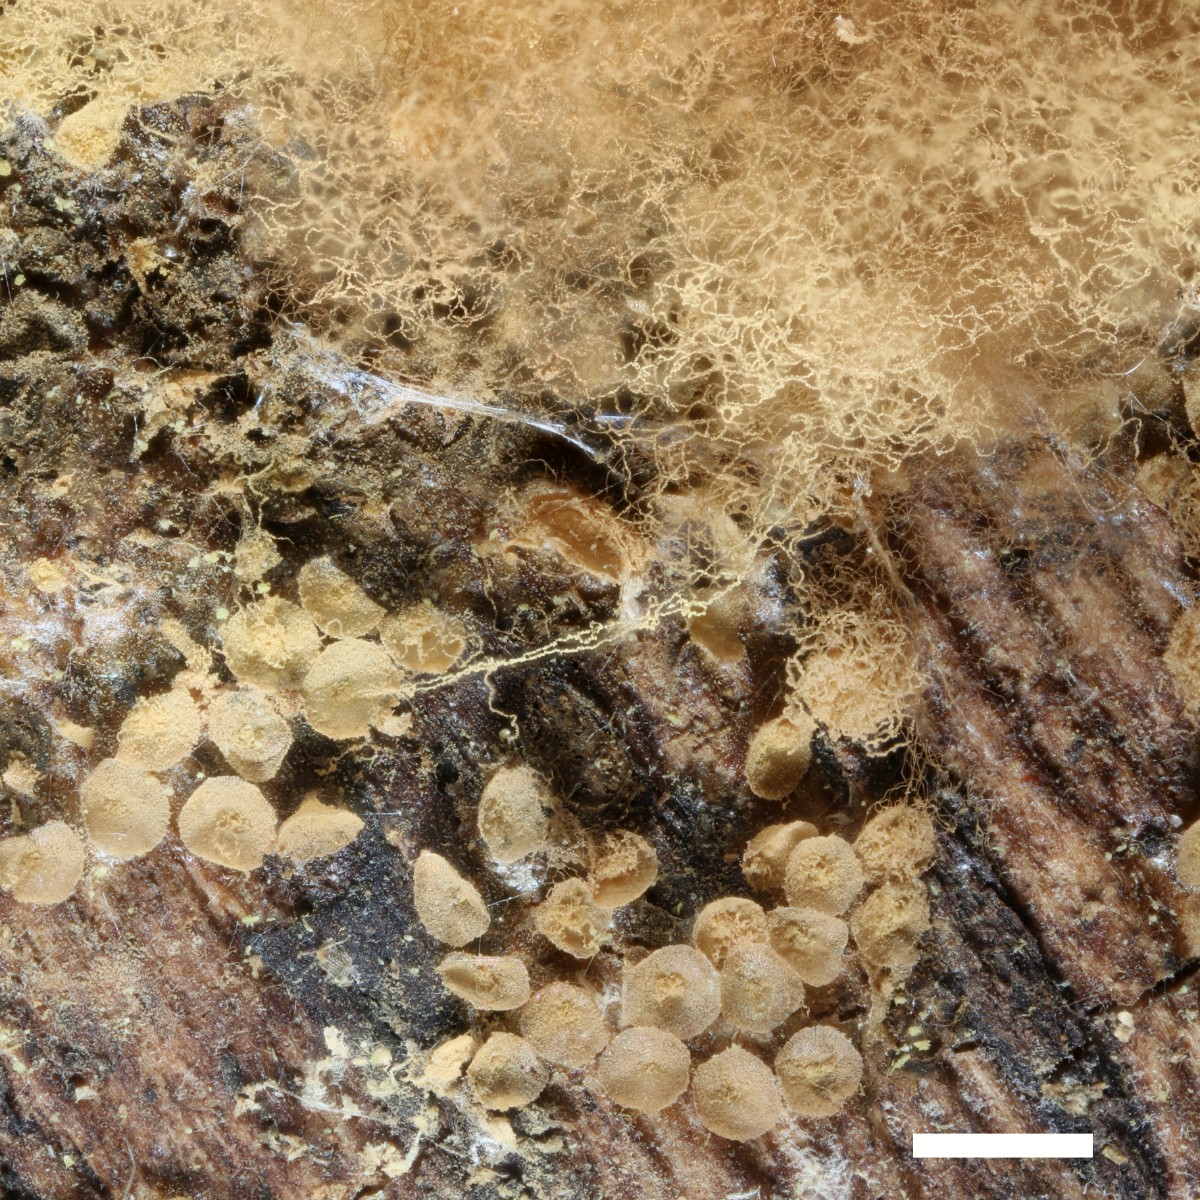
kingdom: Protozoa
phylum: Mycetozoa
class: Myxomycetes
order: Trichiales
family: Arcyriaceae
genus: Arcyria
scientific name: Arcyria incarnata
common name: rosa skålsvøb
